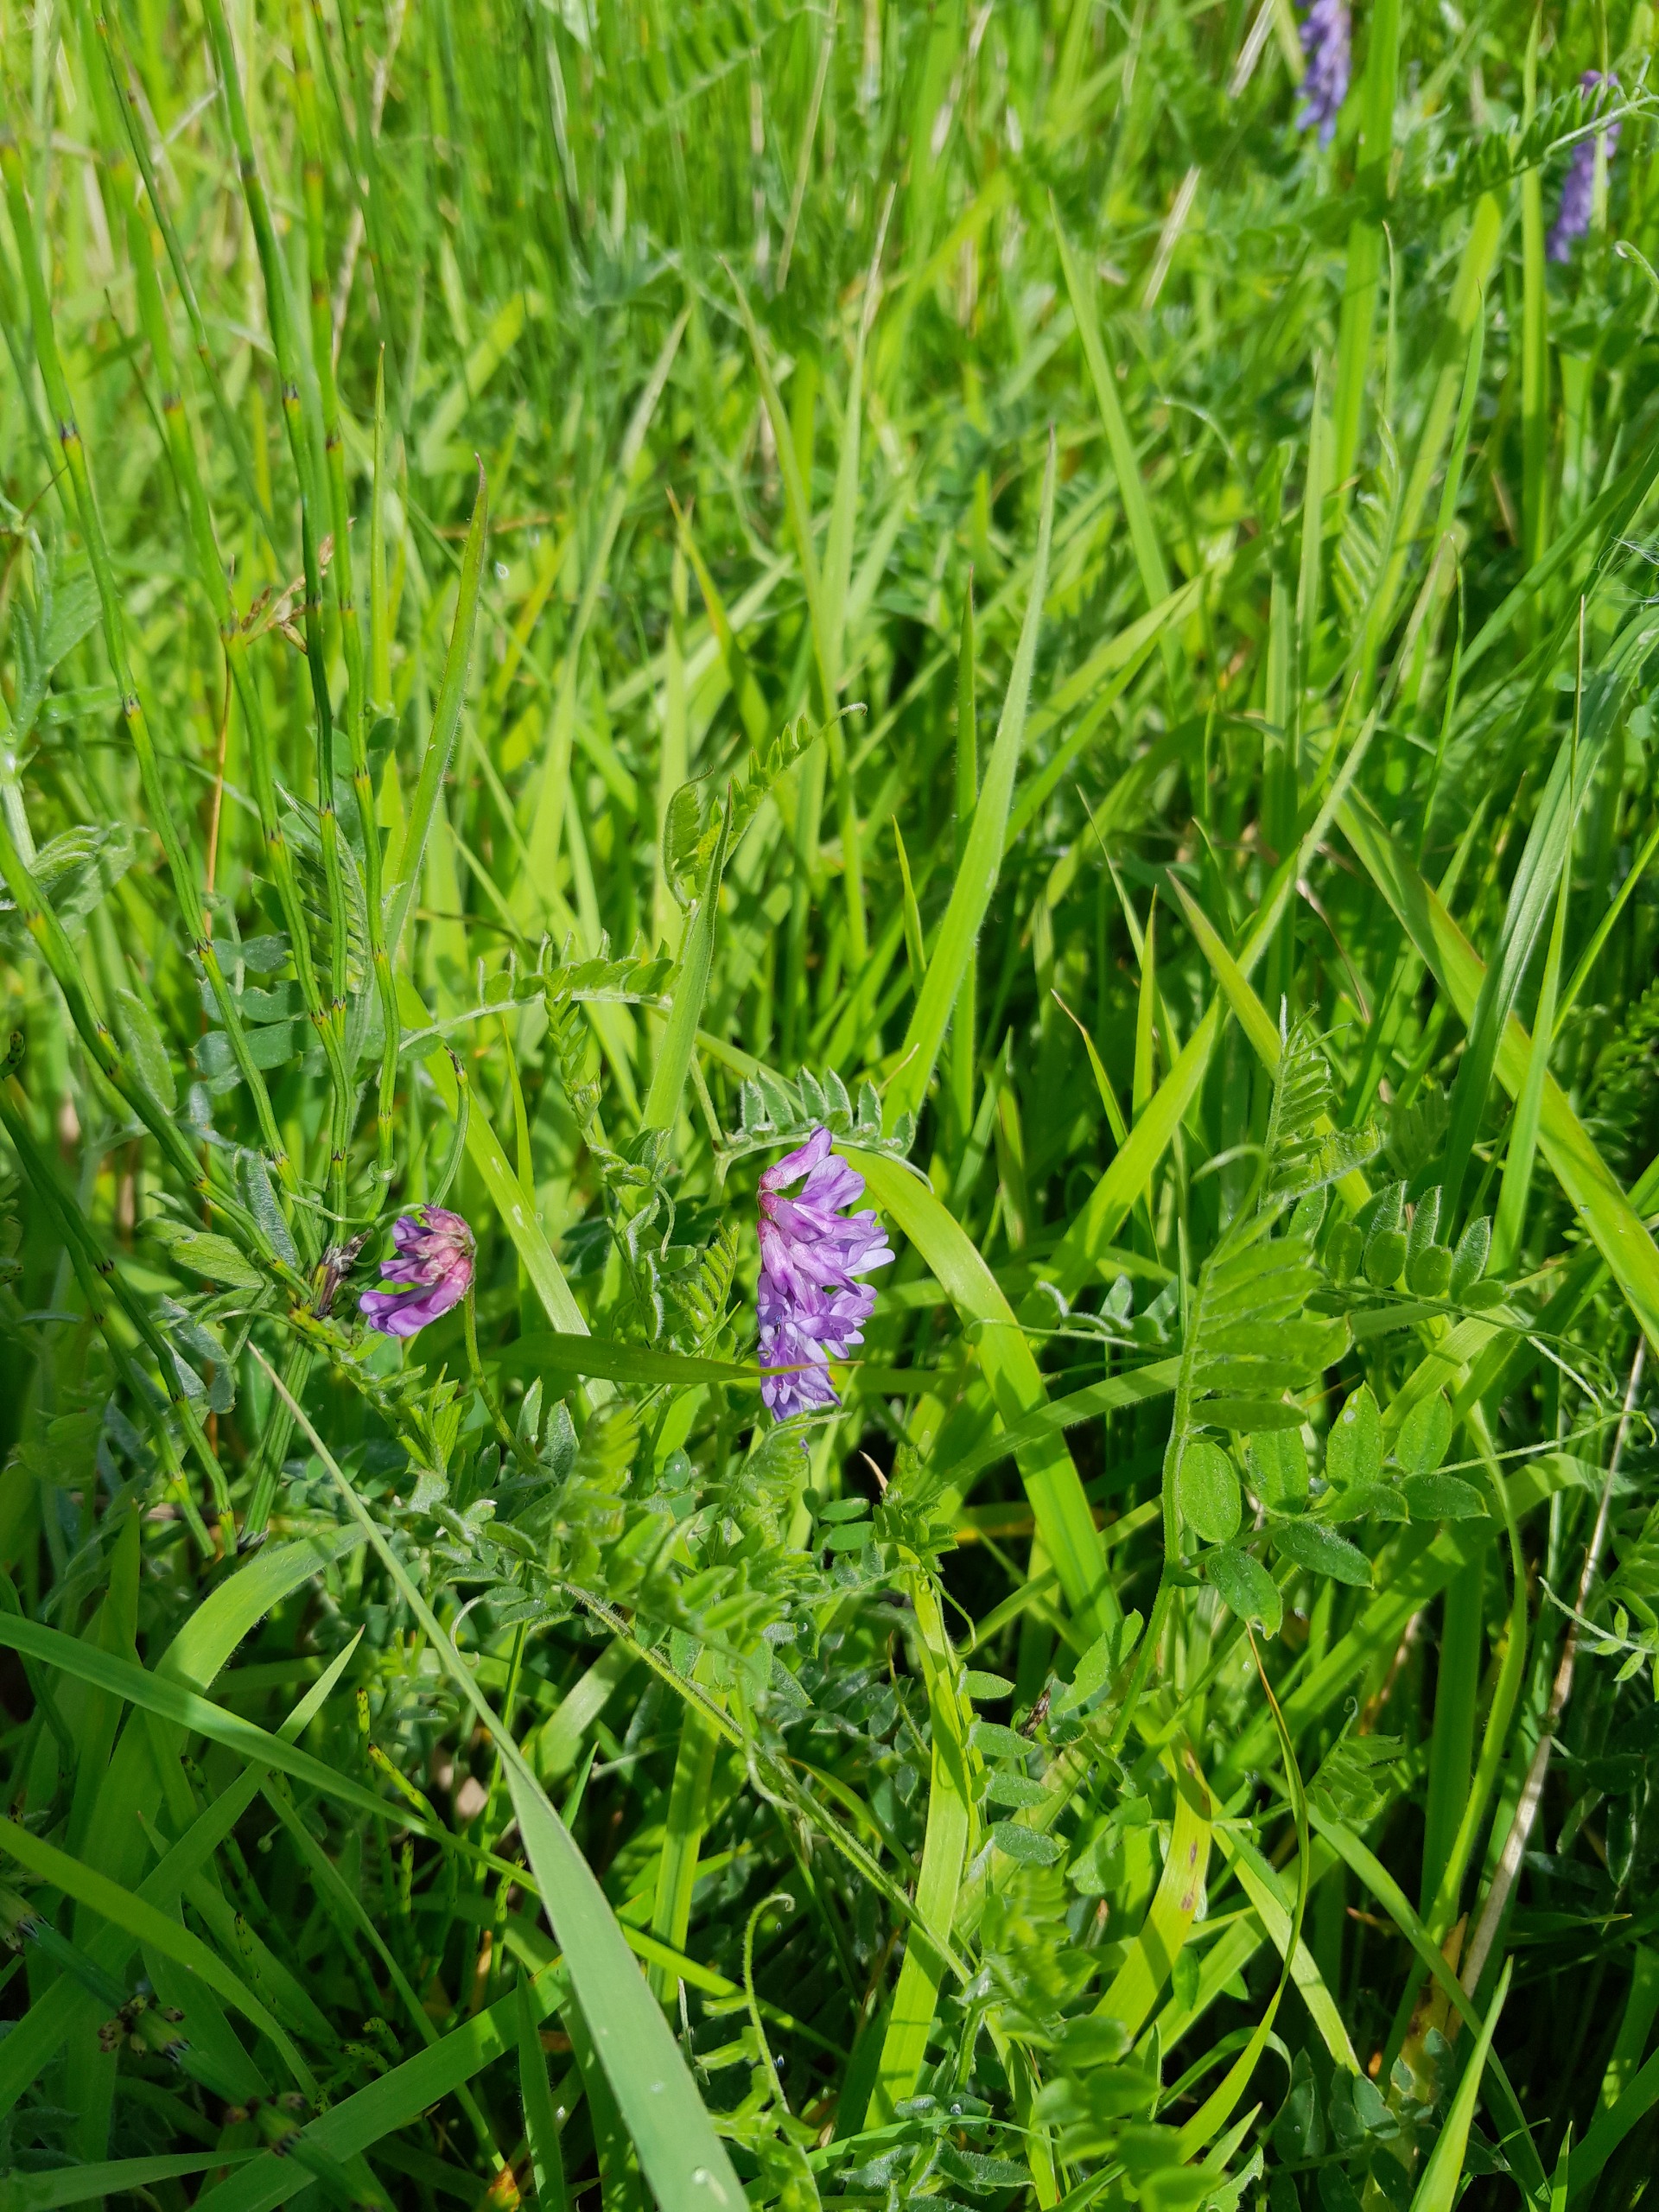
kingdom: Plantae
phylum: Tracheophyta
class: Magnoliopsida
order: Fabales
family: Fabaceae
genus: Vicia
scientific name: Vicia cracca
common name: Muse-vikke
